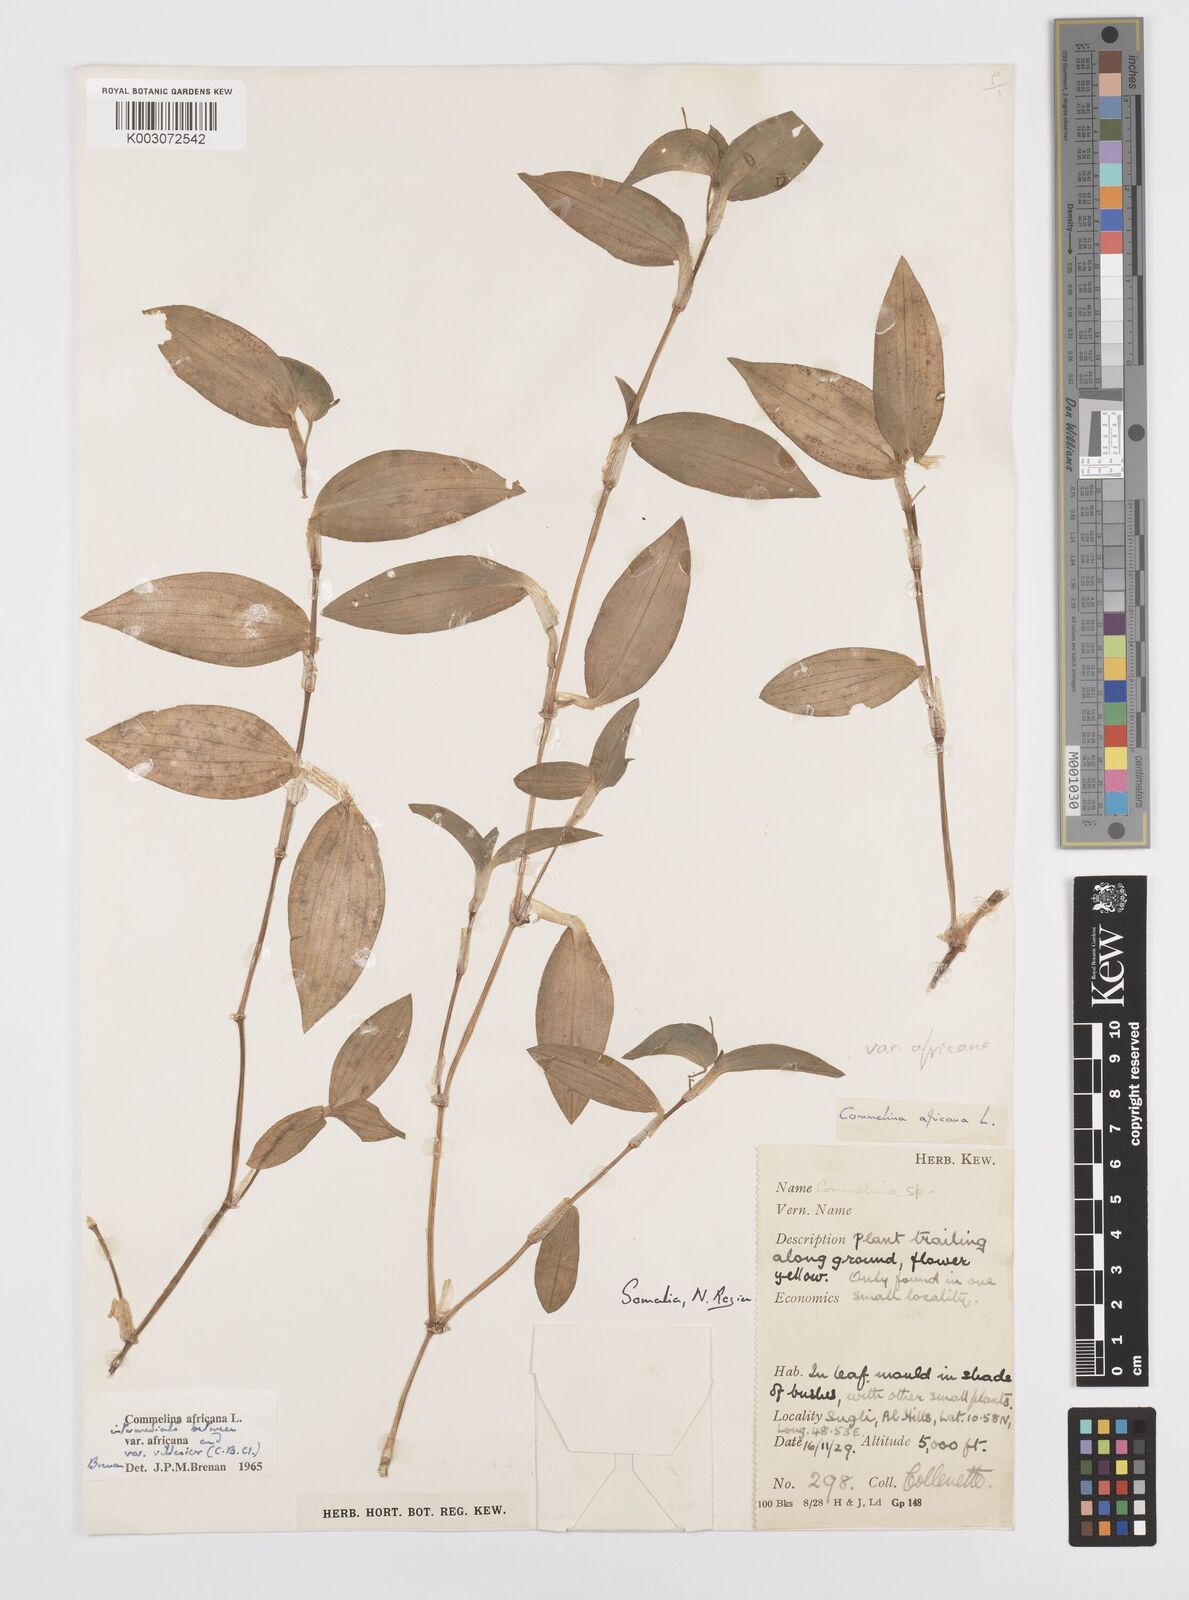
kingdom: Plantae
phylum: Tracheophyta
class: Liliopsida
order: Commelinales
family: Commelinaceae
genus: Commelina
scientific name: Commelina africana
